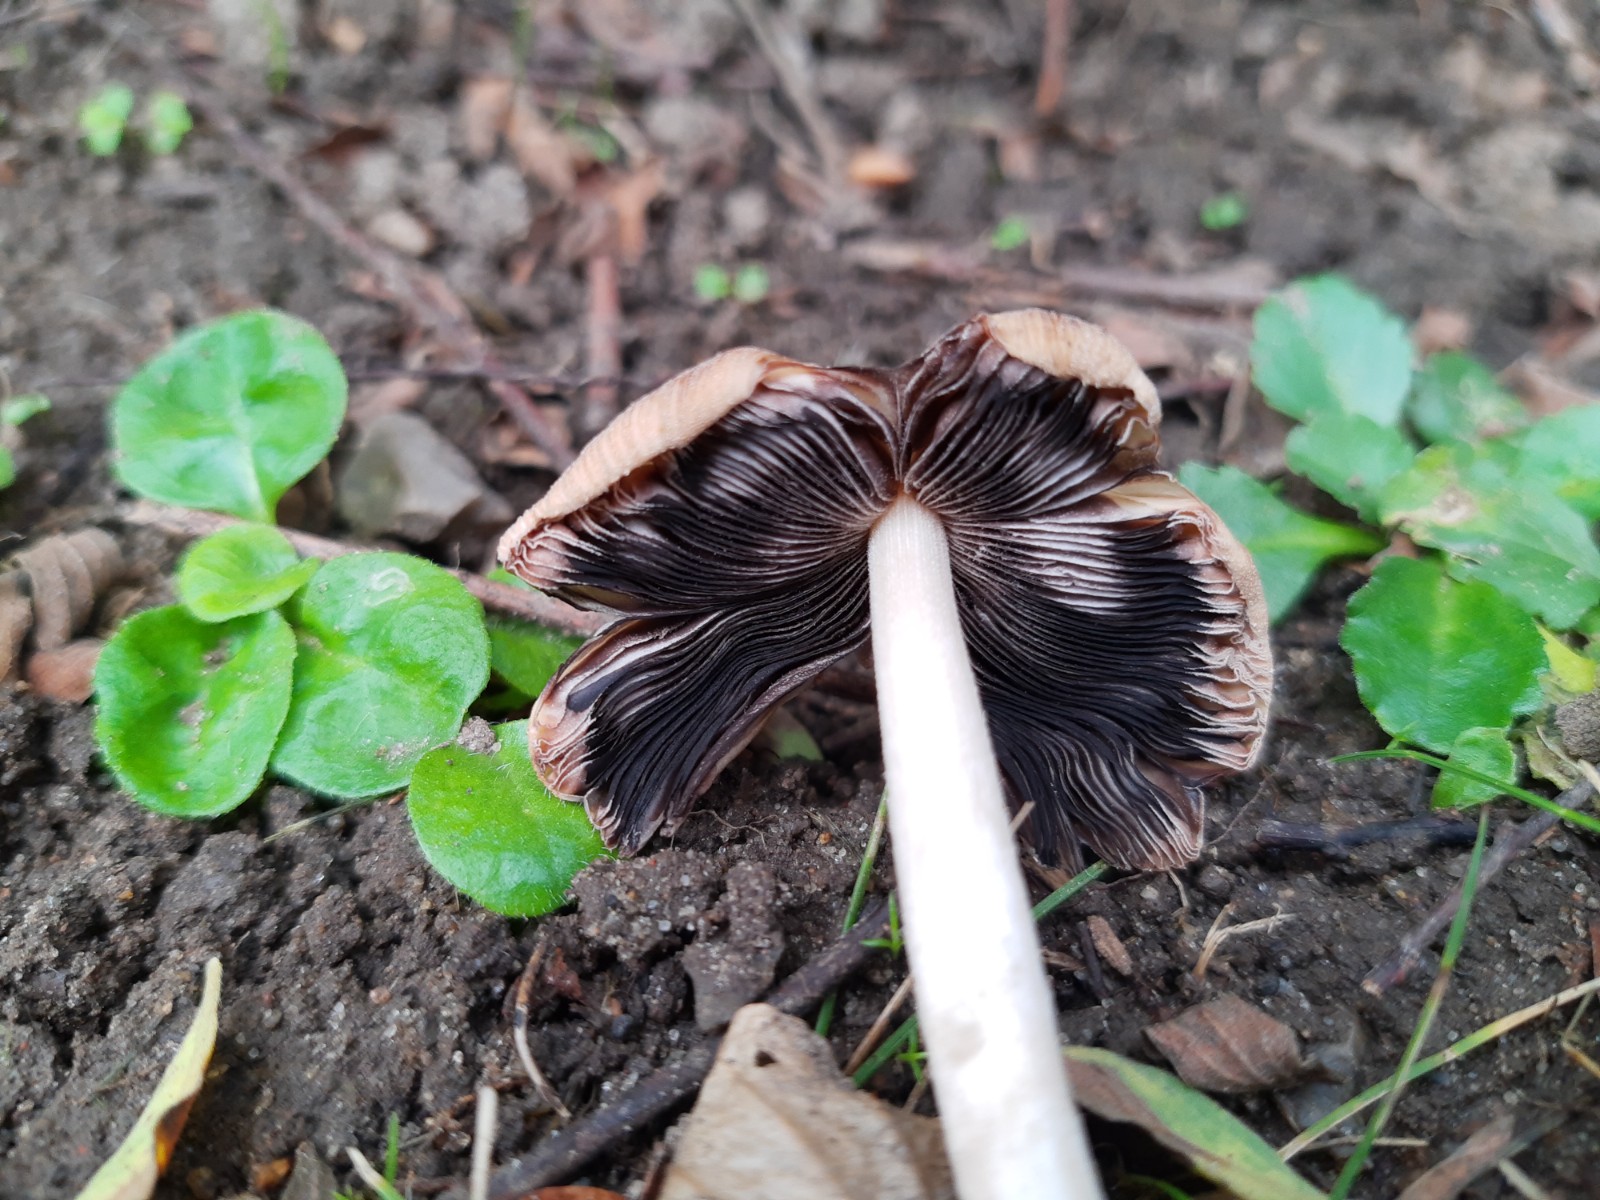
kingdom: Fungi
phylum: Basidiomycota
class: Agaricomycetes
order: Agaricales
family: Psathyrellaceae
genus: Coprinellus
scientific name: Coprinellus
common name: blækhat
